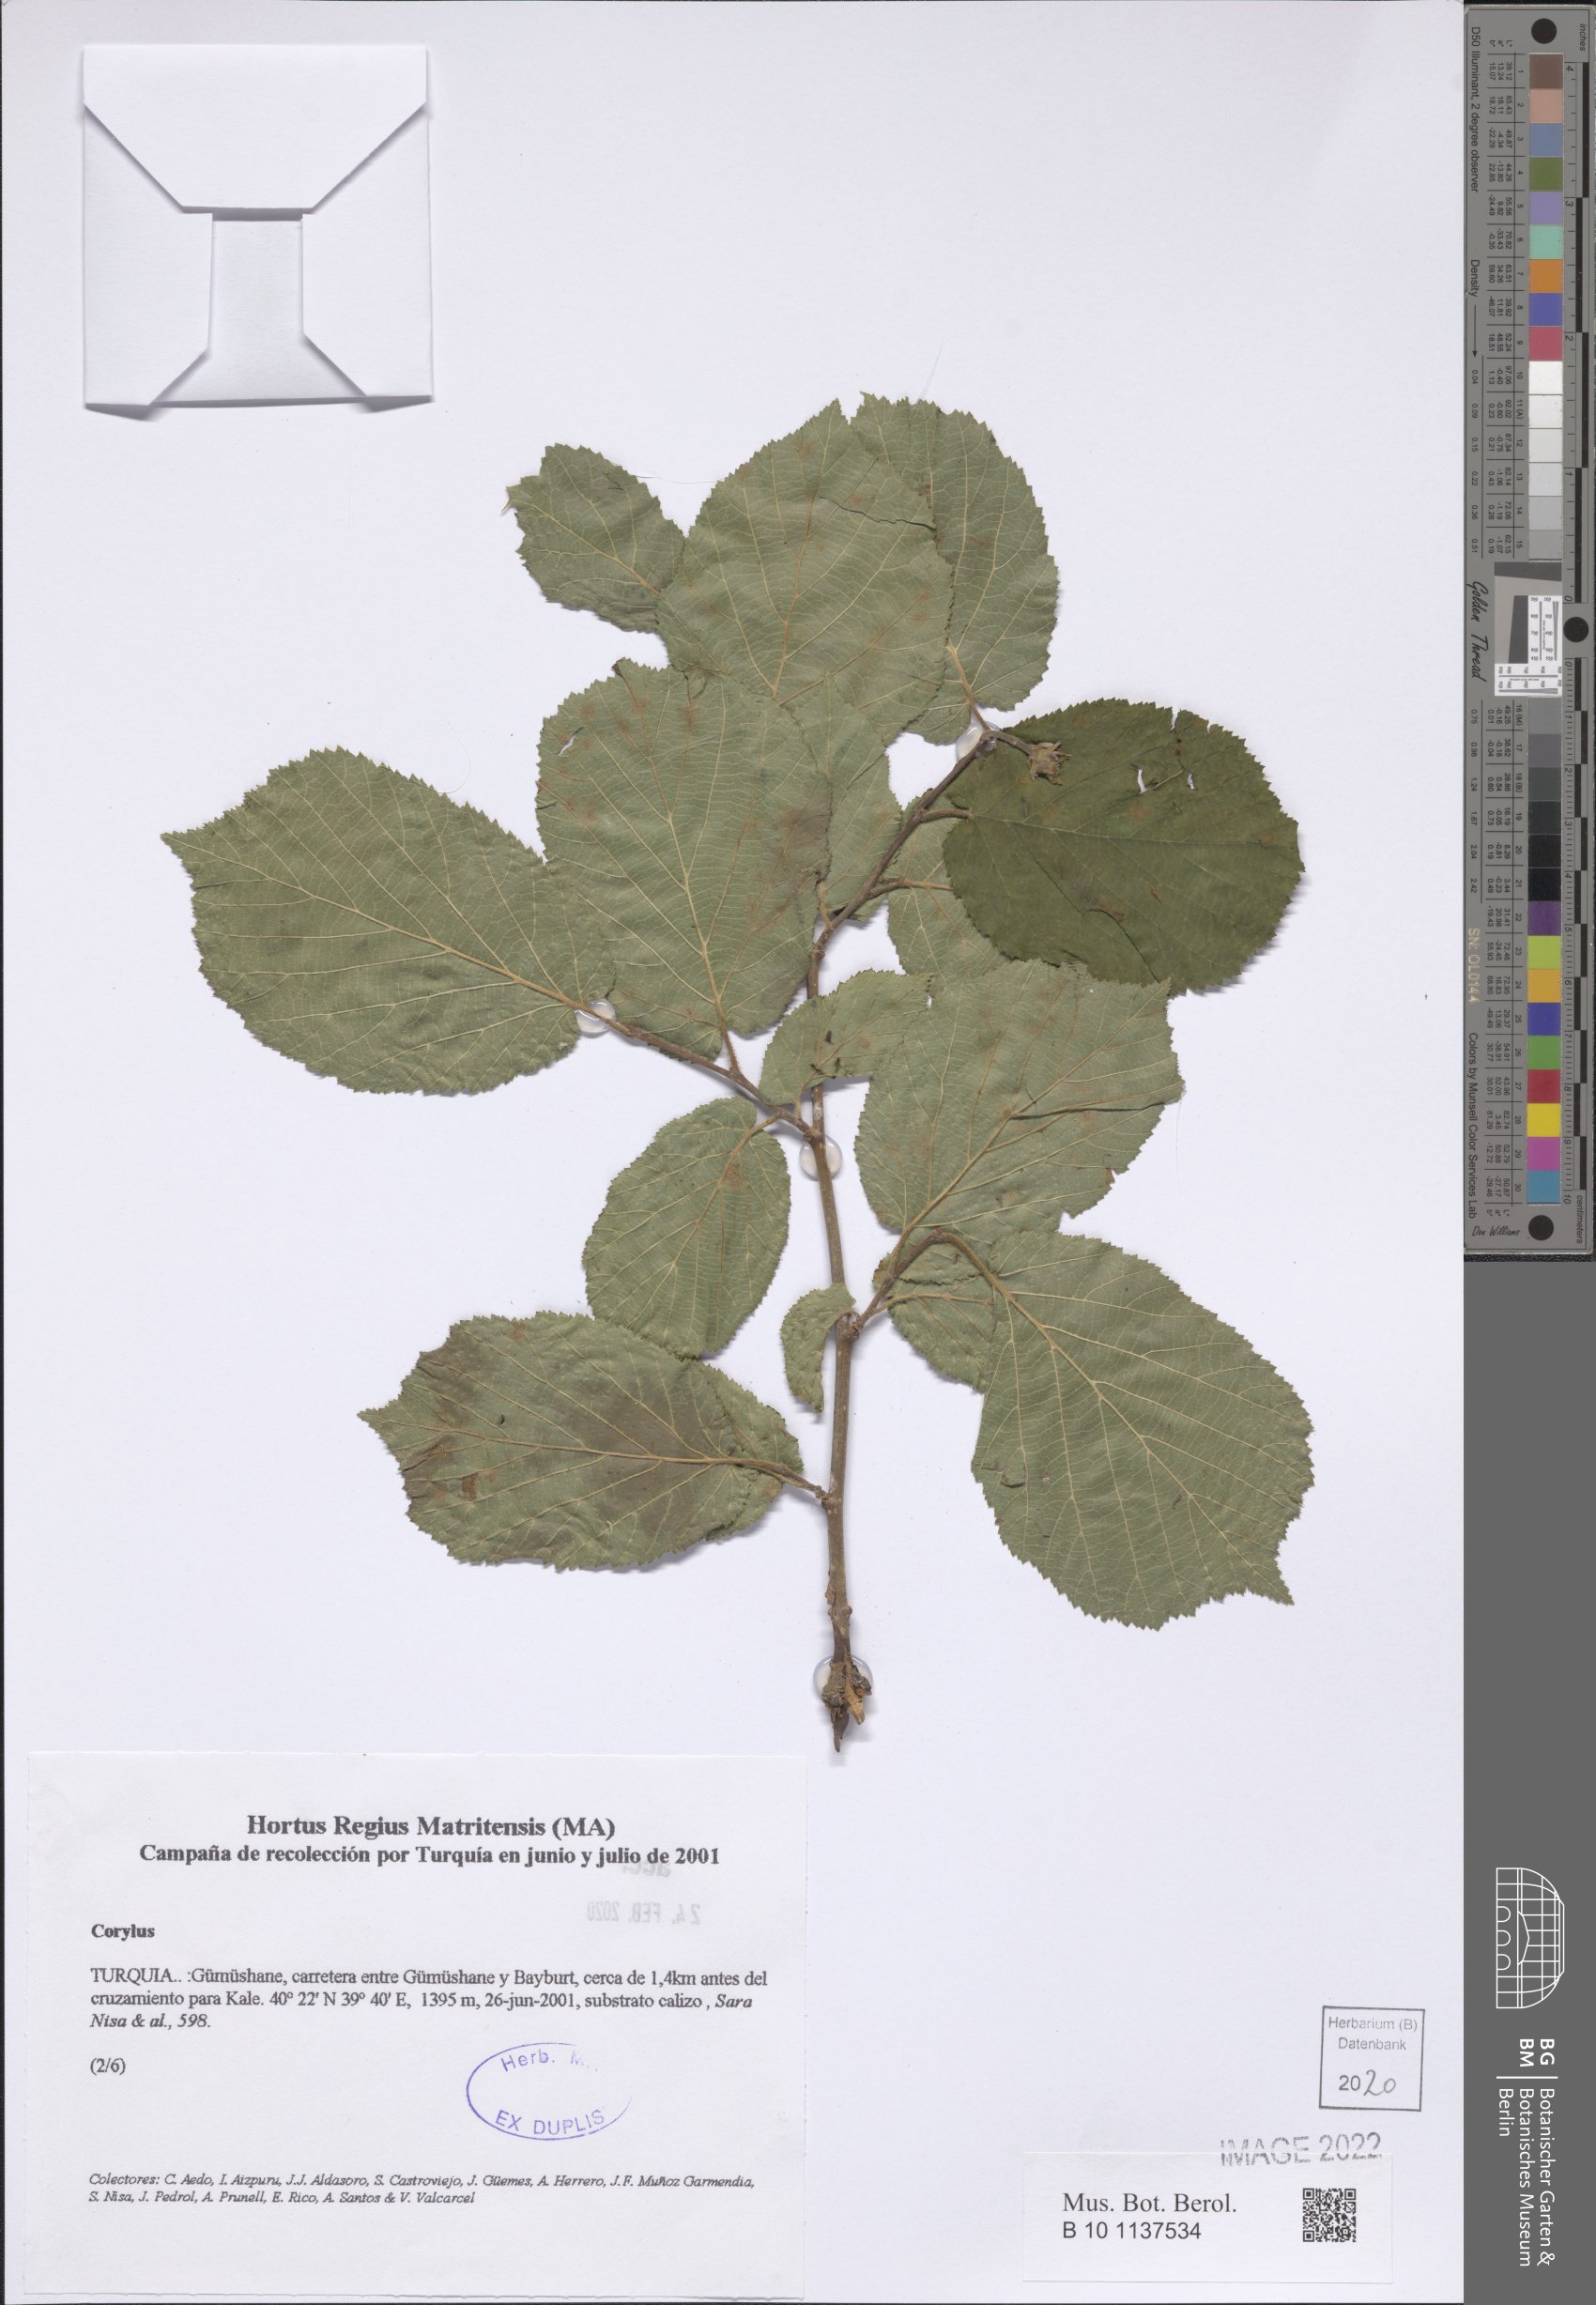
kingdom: Plantae
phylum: Tracheophyta
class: Magnoliopsida
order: Fagales
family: Betulaceae
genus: Corylus
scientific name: Corylus
